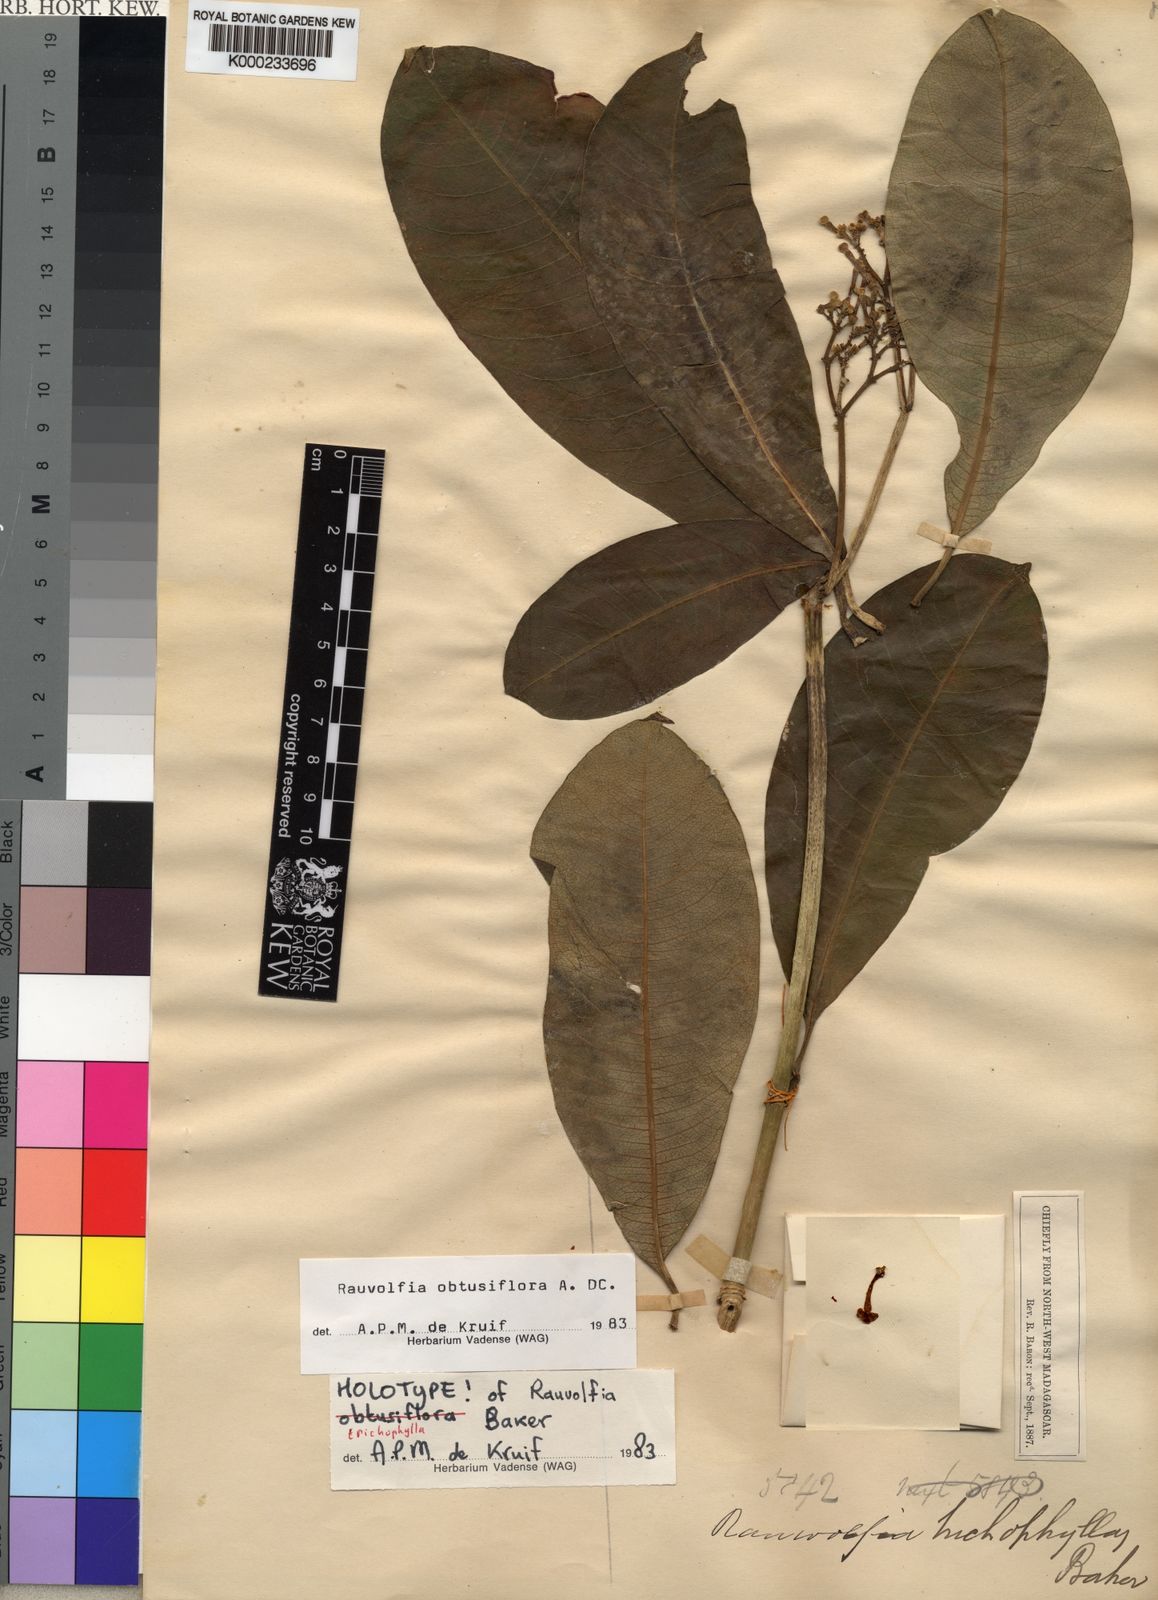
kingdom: Plantae
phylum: Tracheophyta
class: Magnoliopsida
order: Gentianales
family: Apocynaceae
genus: Rauvolfia
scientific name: Rauvolfia obtusiflora
